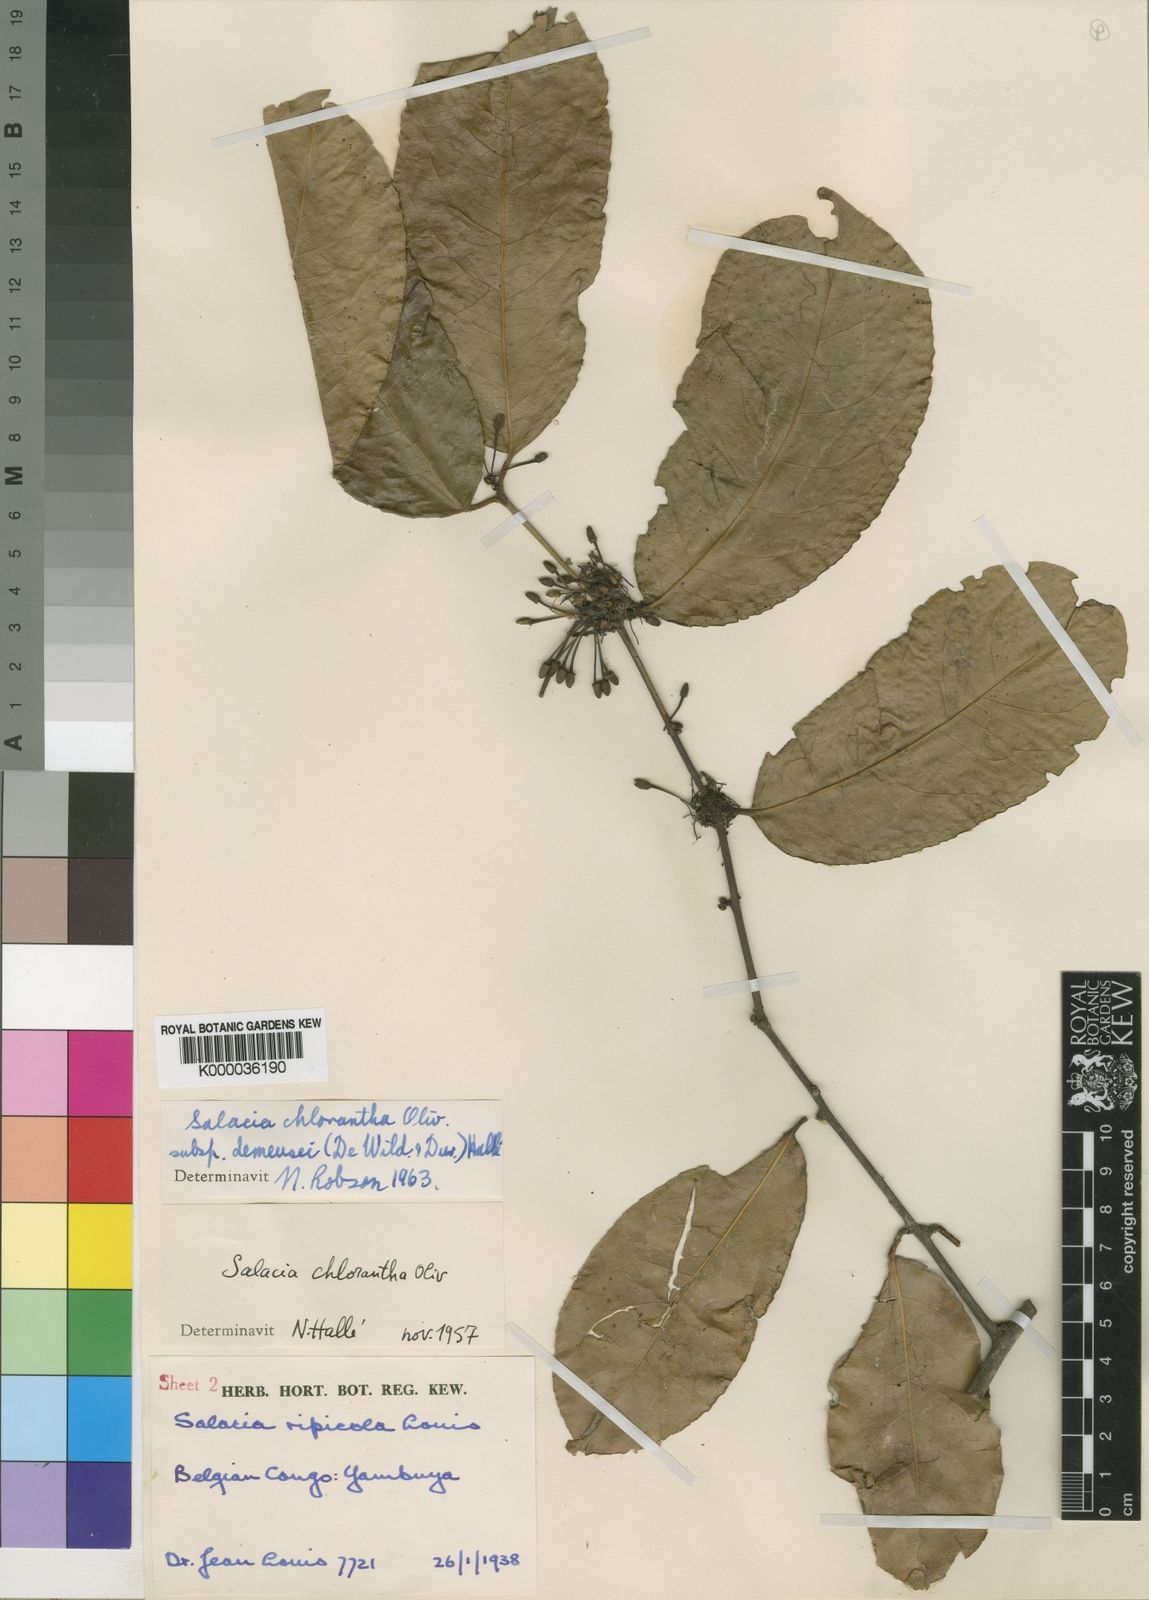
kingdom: Plantae
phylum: Tracheophyta
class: Magnoliopsida
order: Celastrales
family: Celastraceae
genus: Salacia
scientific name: Salacia chlorantha
